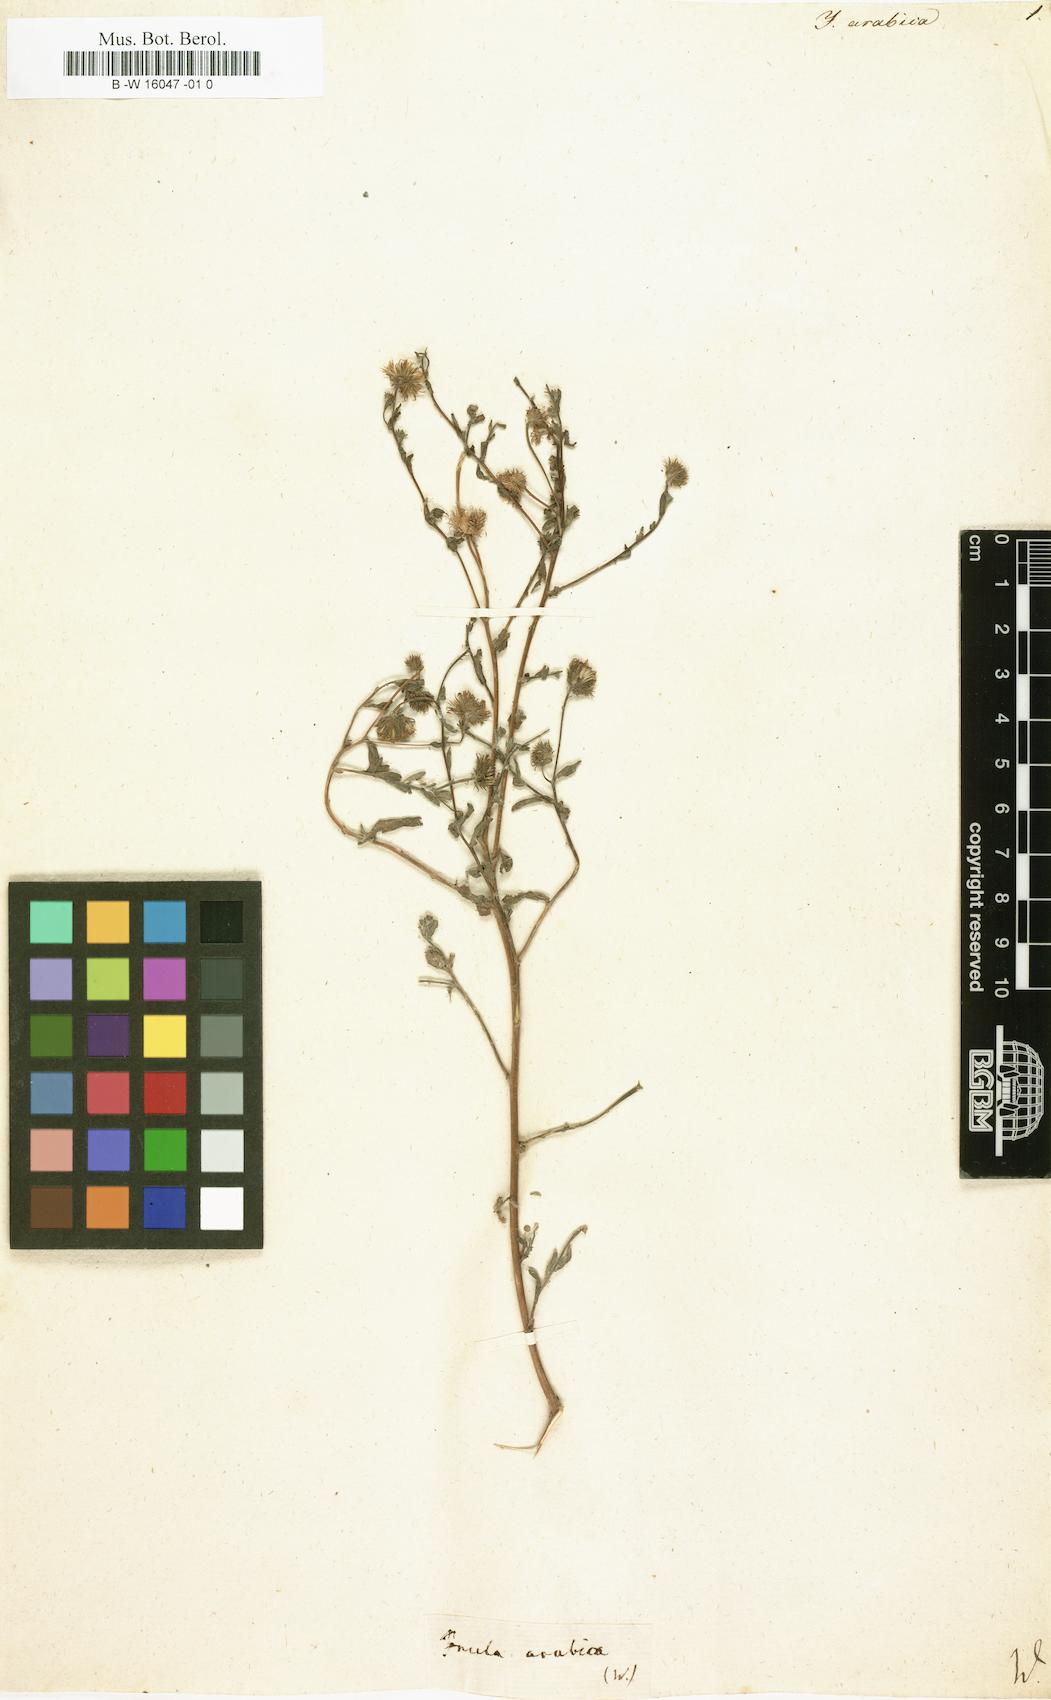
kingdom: Plantae
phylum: Tracheophyta
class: Magnoliopsida
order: Asterales
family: Asteraceae
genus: Pulicaria
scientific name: Pulicaria
